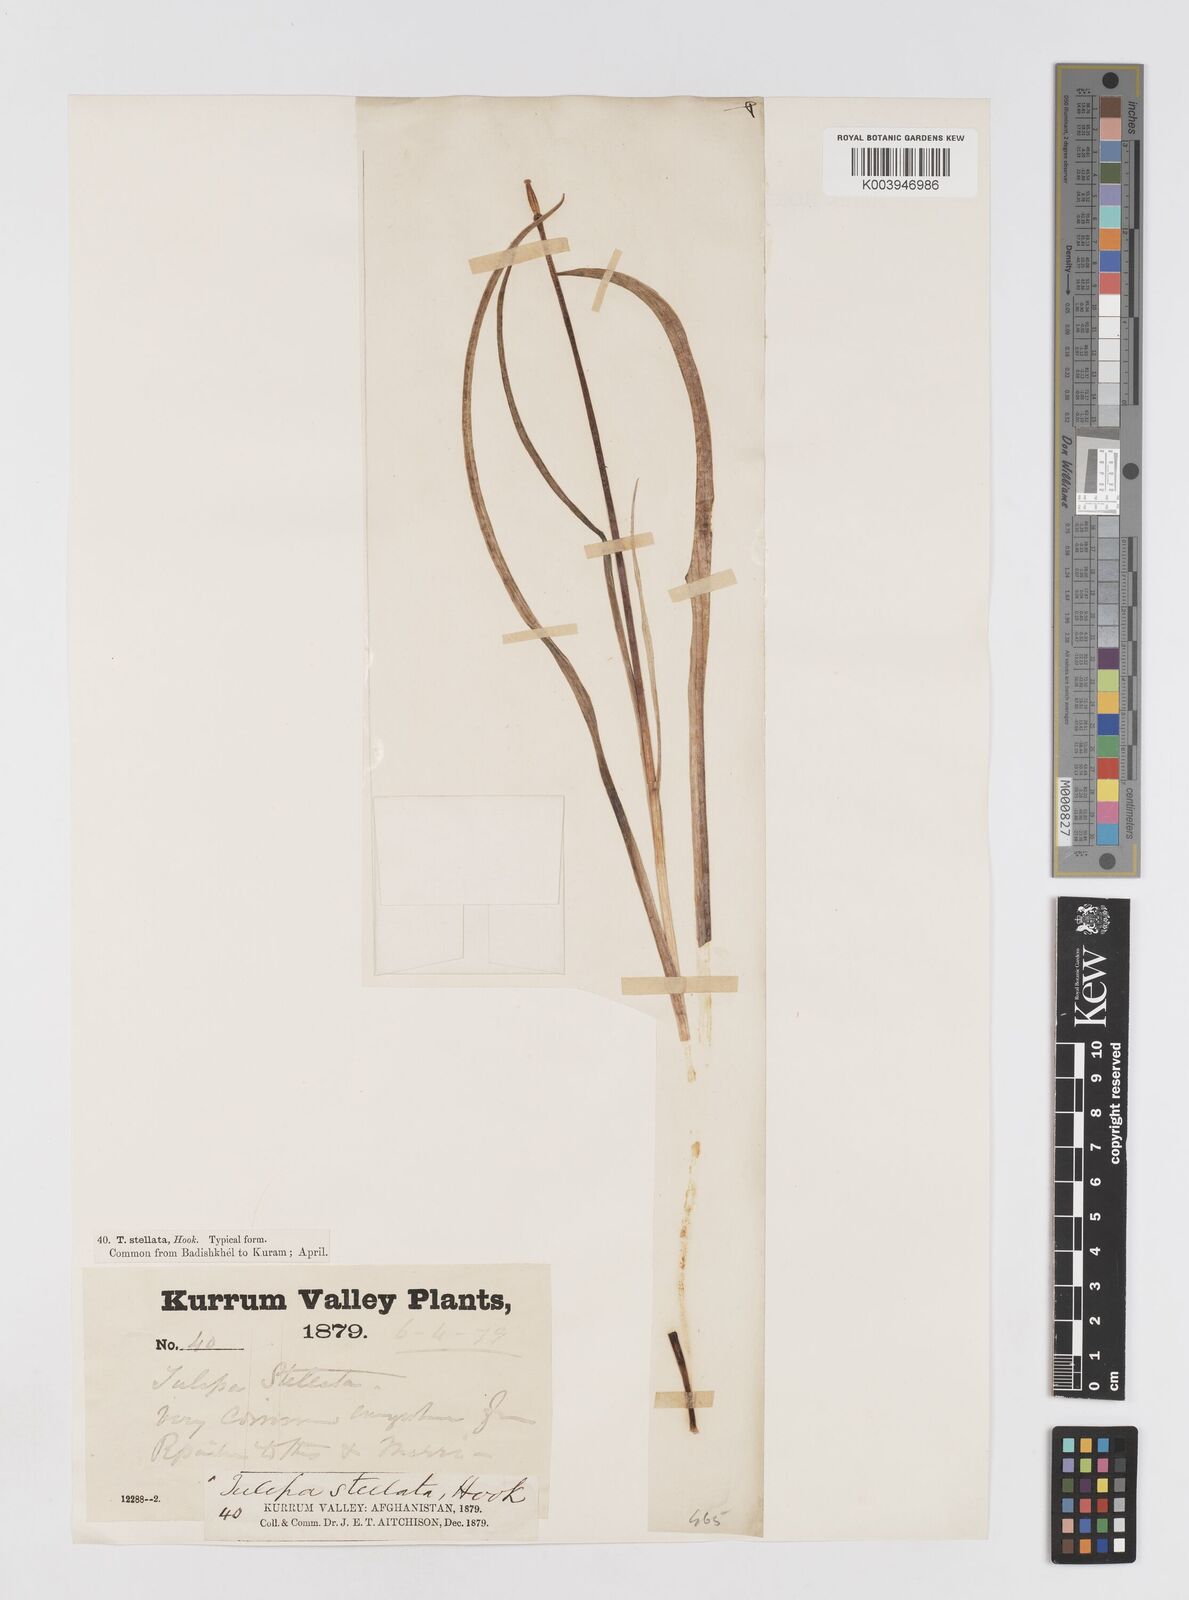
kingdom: Plantae
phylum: Tracheophyta
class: Liliopsida
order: Liliales
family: Liliaceae
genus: Tulipa
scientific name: Tulipa clusiana
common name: Lady tulip
